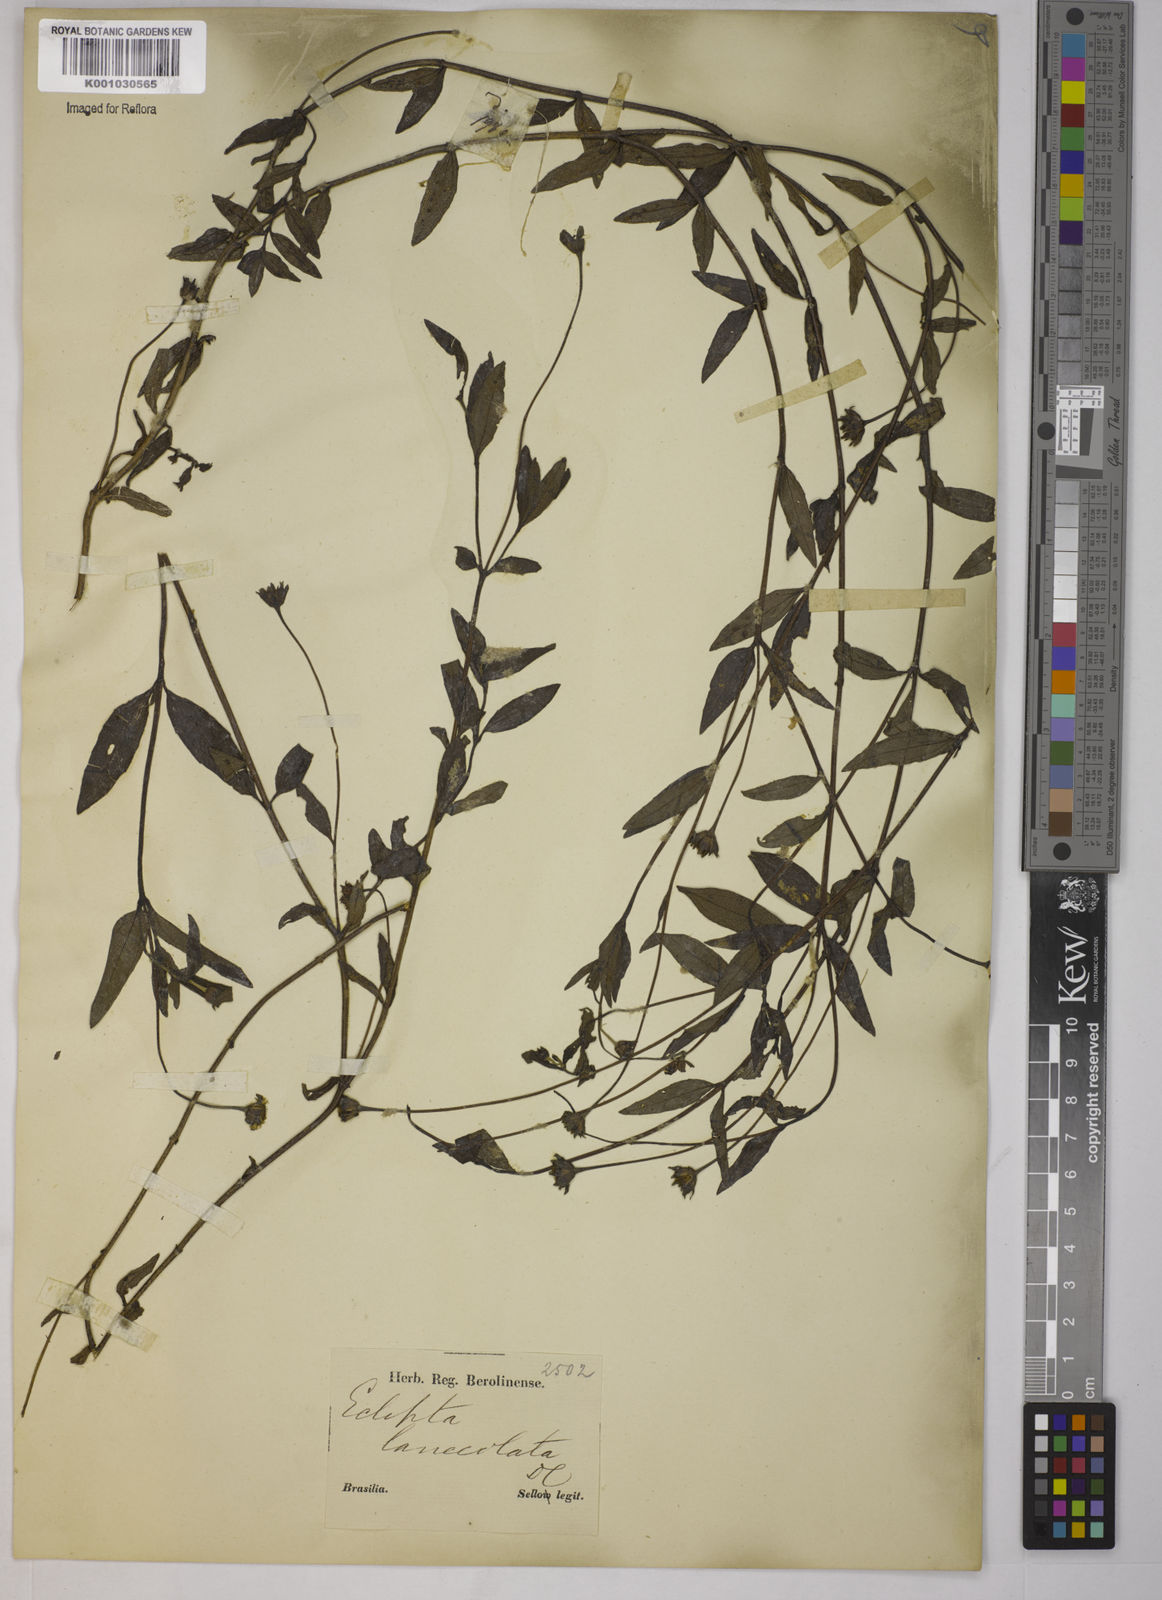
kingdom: Plantae
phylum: Tracheophyta
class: Magnoliopsida
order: Asterales
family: Asteraceae
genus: Eclipta
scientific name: Eclipta megapotamica
